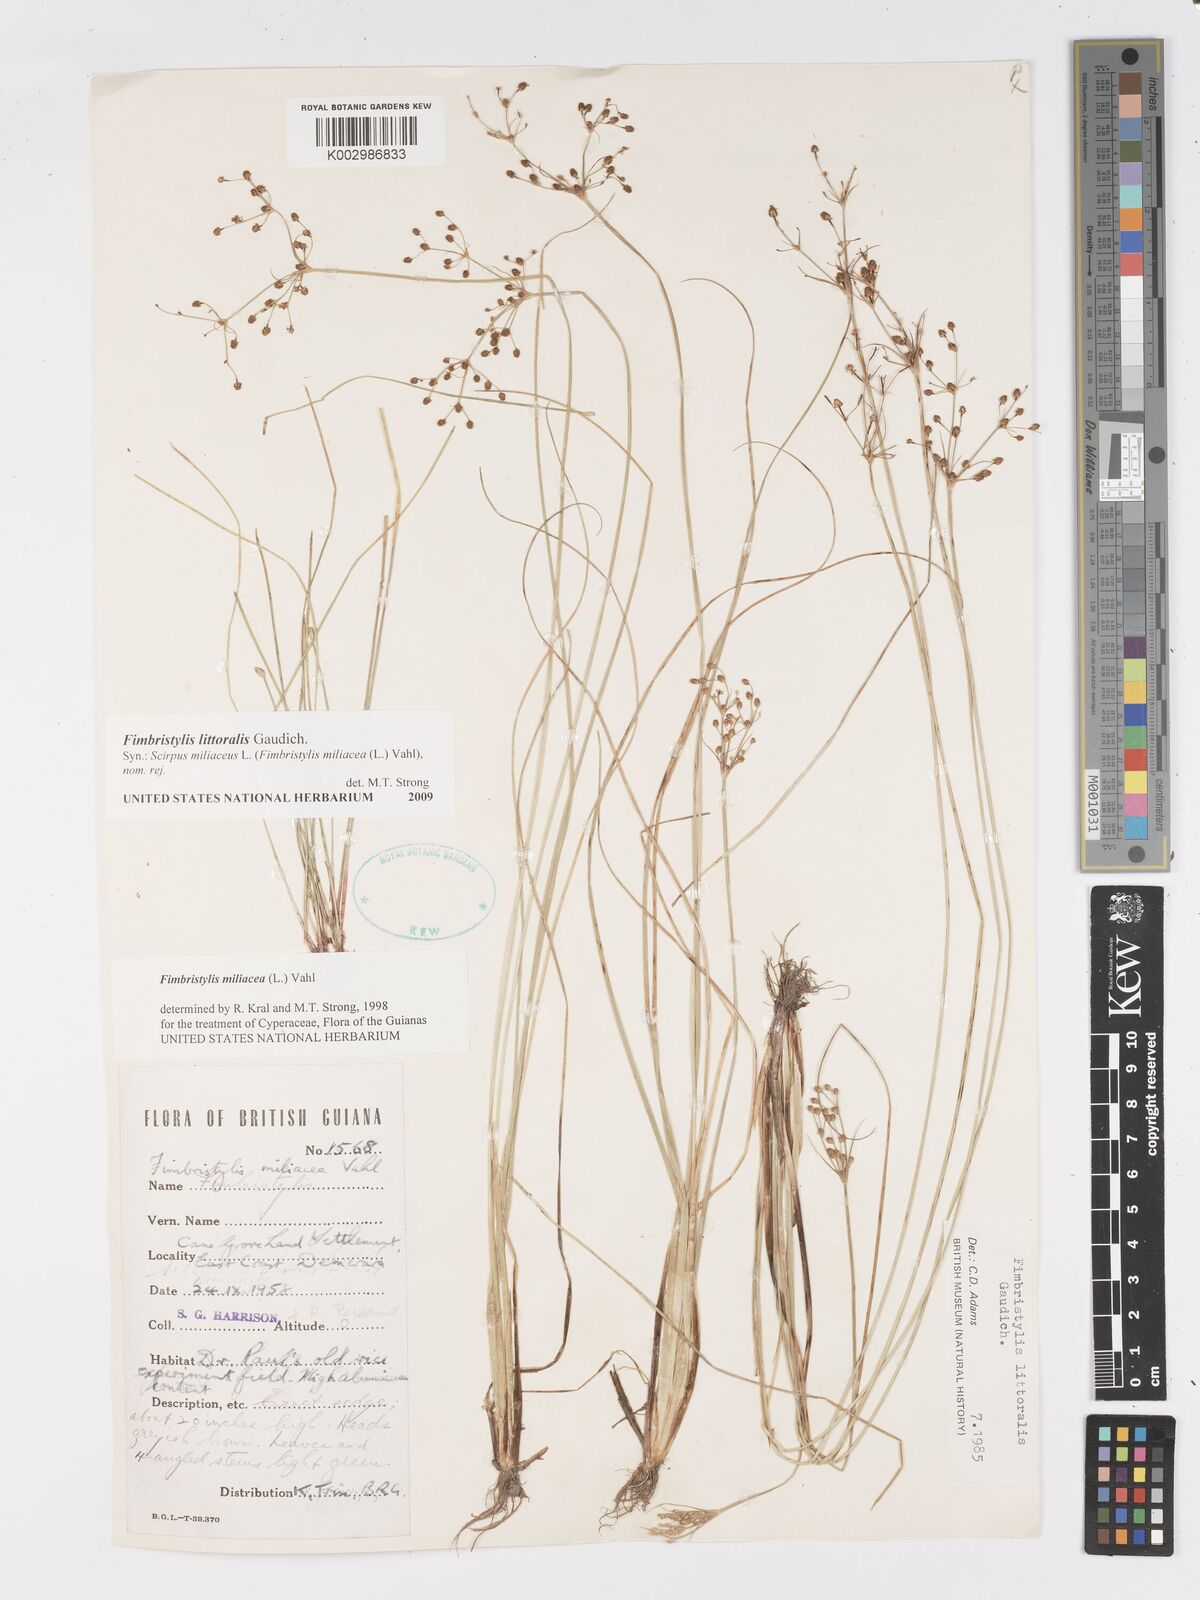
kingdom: Plantae
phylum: Tracheophyta
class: Liliopsida
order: Poales
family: Cyperaceae
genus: Fimbristylis
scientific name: Fimbristylis littoralis
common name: Fimbry
